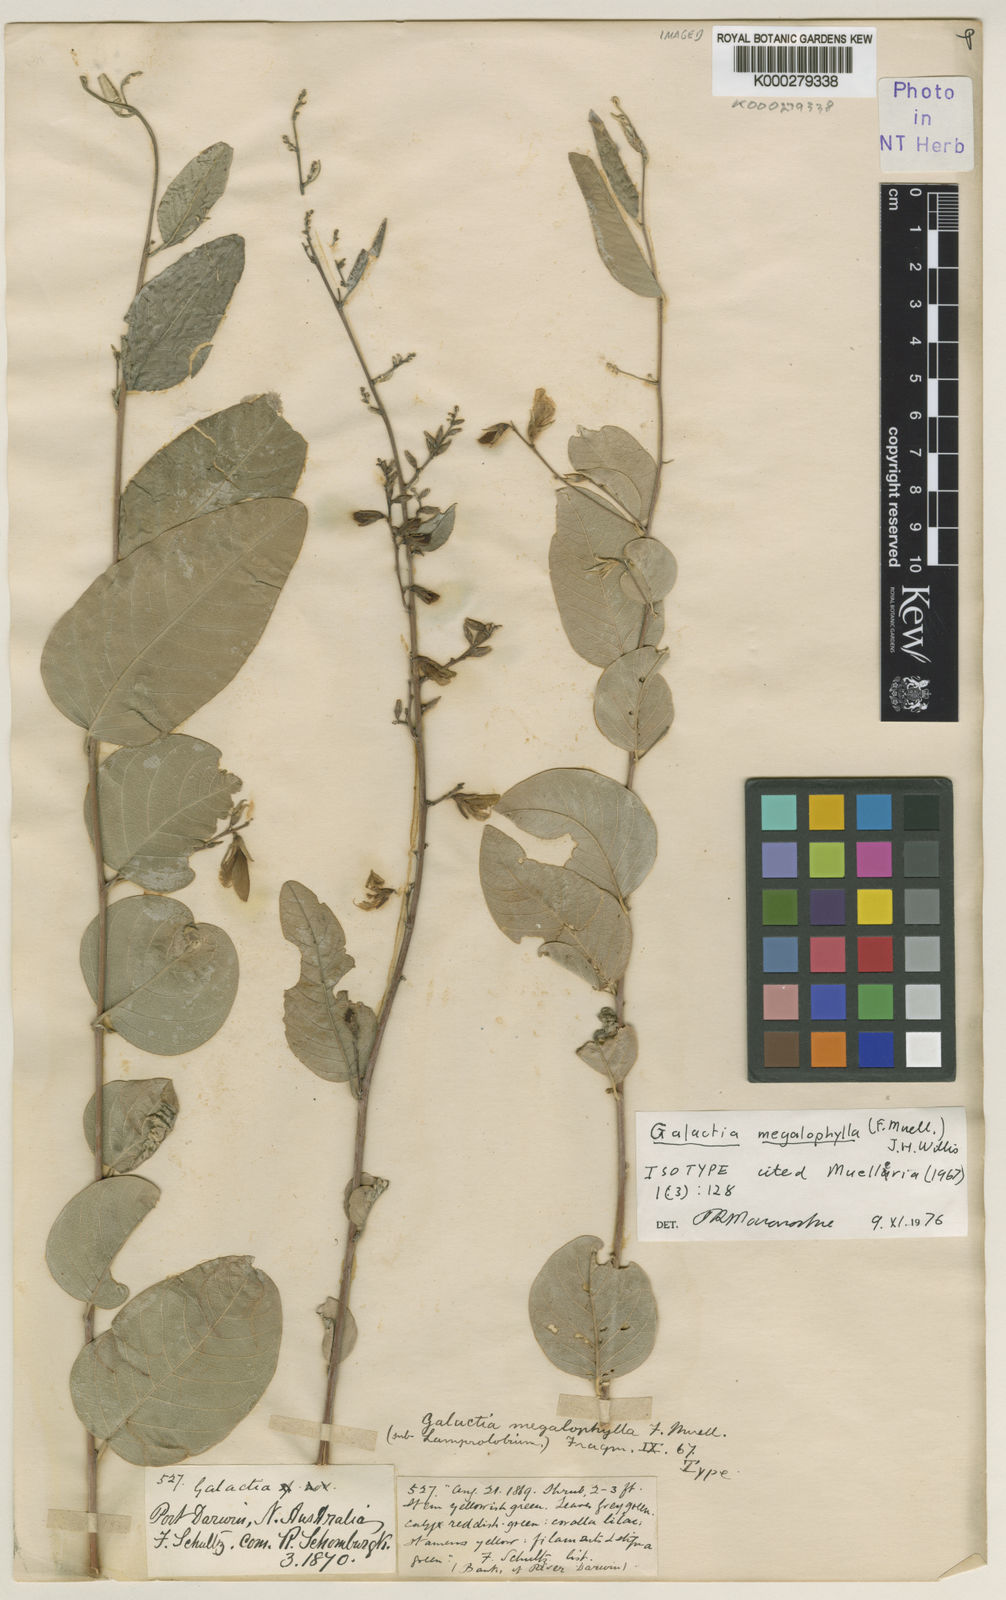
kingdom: Plantae
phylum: Tracheophyta
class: Magnoliopsida
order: Fabales
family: Fabaceae
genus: Galactia
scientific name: Galactia megalophylla
